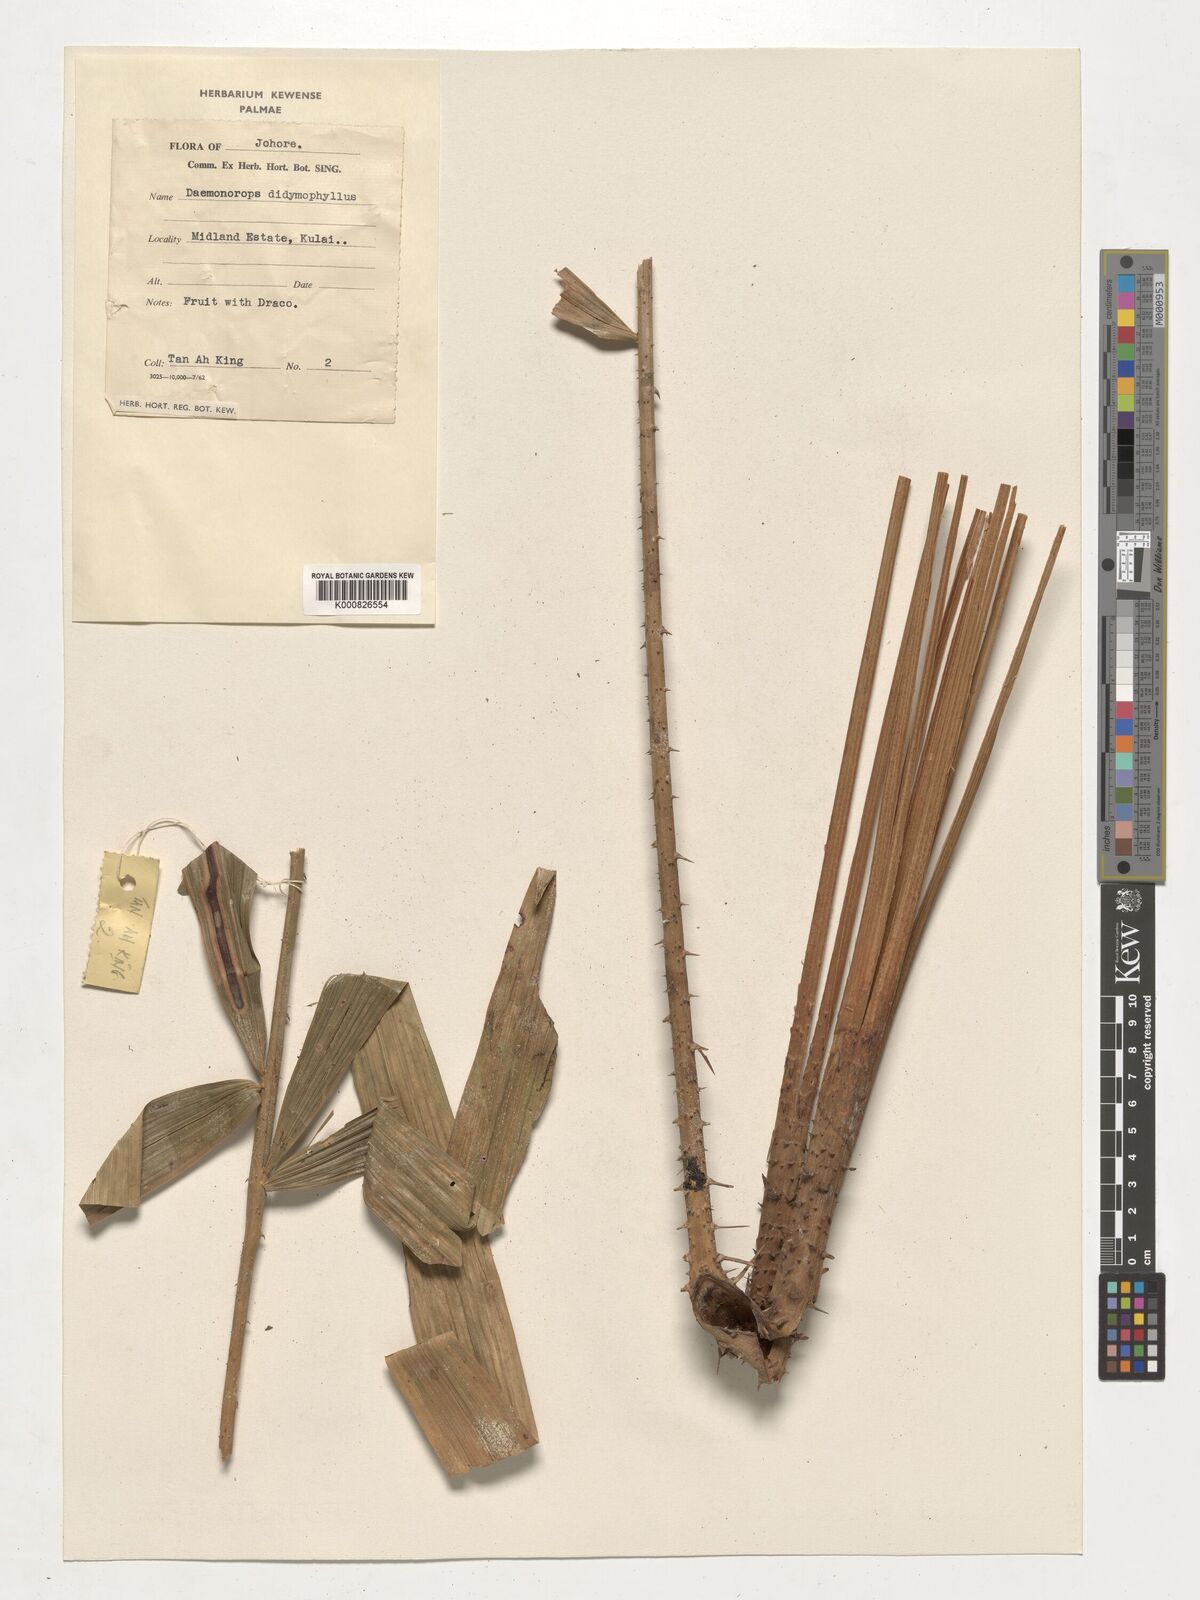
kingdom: Plantae
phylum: Tracheophyta
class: Liliopsida
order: Arecales
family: Arecaceae
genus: Calamus
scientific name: Calamus gracilipes
